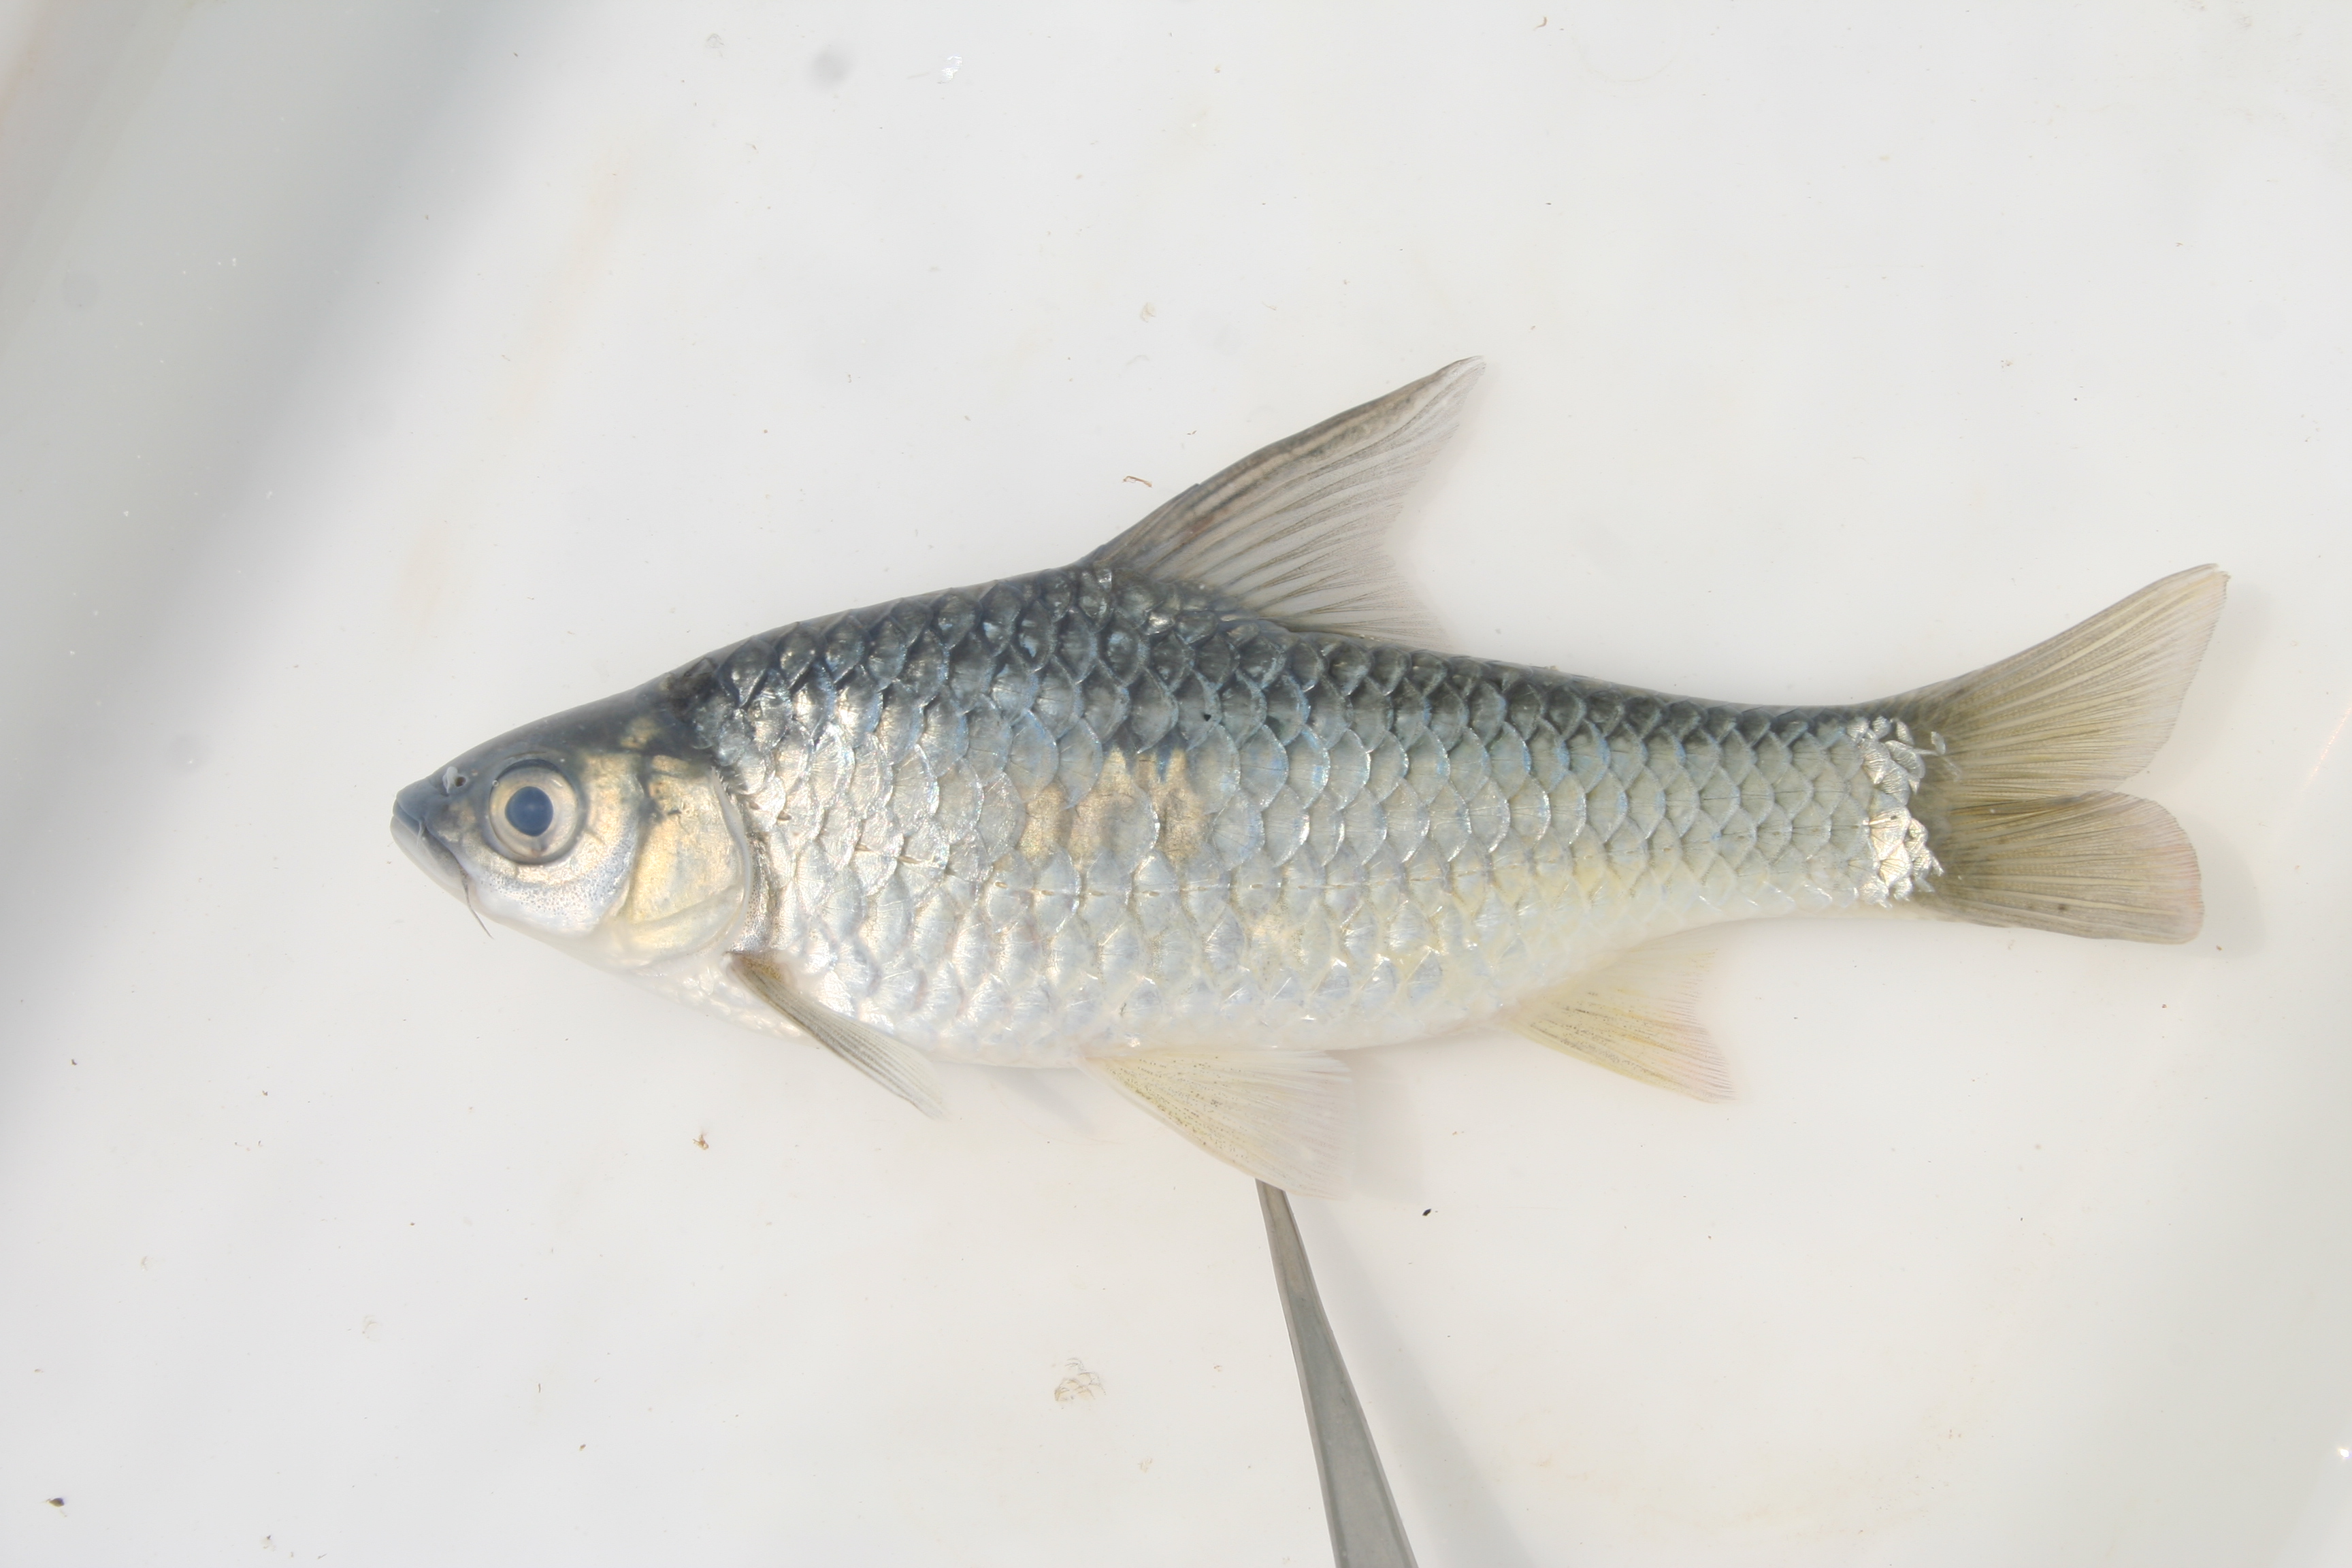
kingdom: Animalia
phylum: Chordata
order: Cypriniformes
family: Cyprinidae
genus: Enteromius
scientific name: Enteromius argenteus
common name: Rosefin barb
